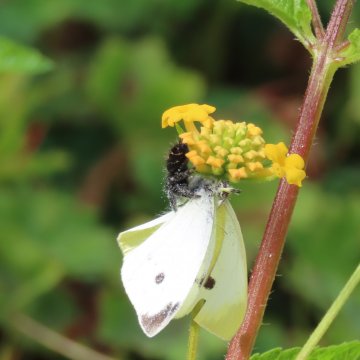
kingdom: Animalia
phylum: Arthropoda
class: Insecta
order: Lepidoptera
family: Pieridae
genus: Pieris
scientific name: Pieris rapae
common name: Cabbage White
